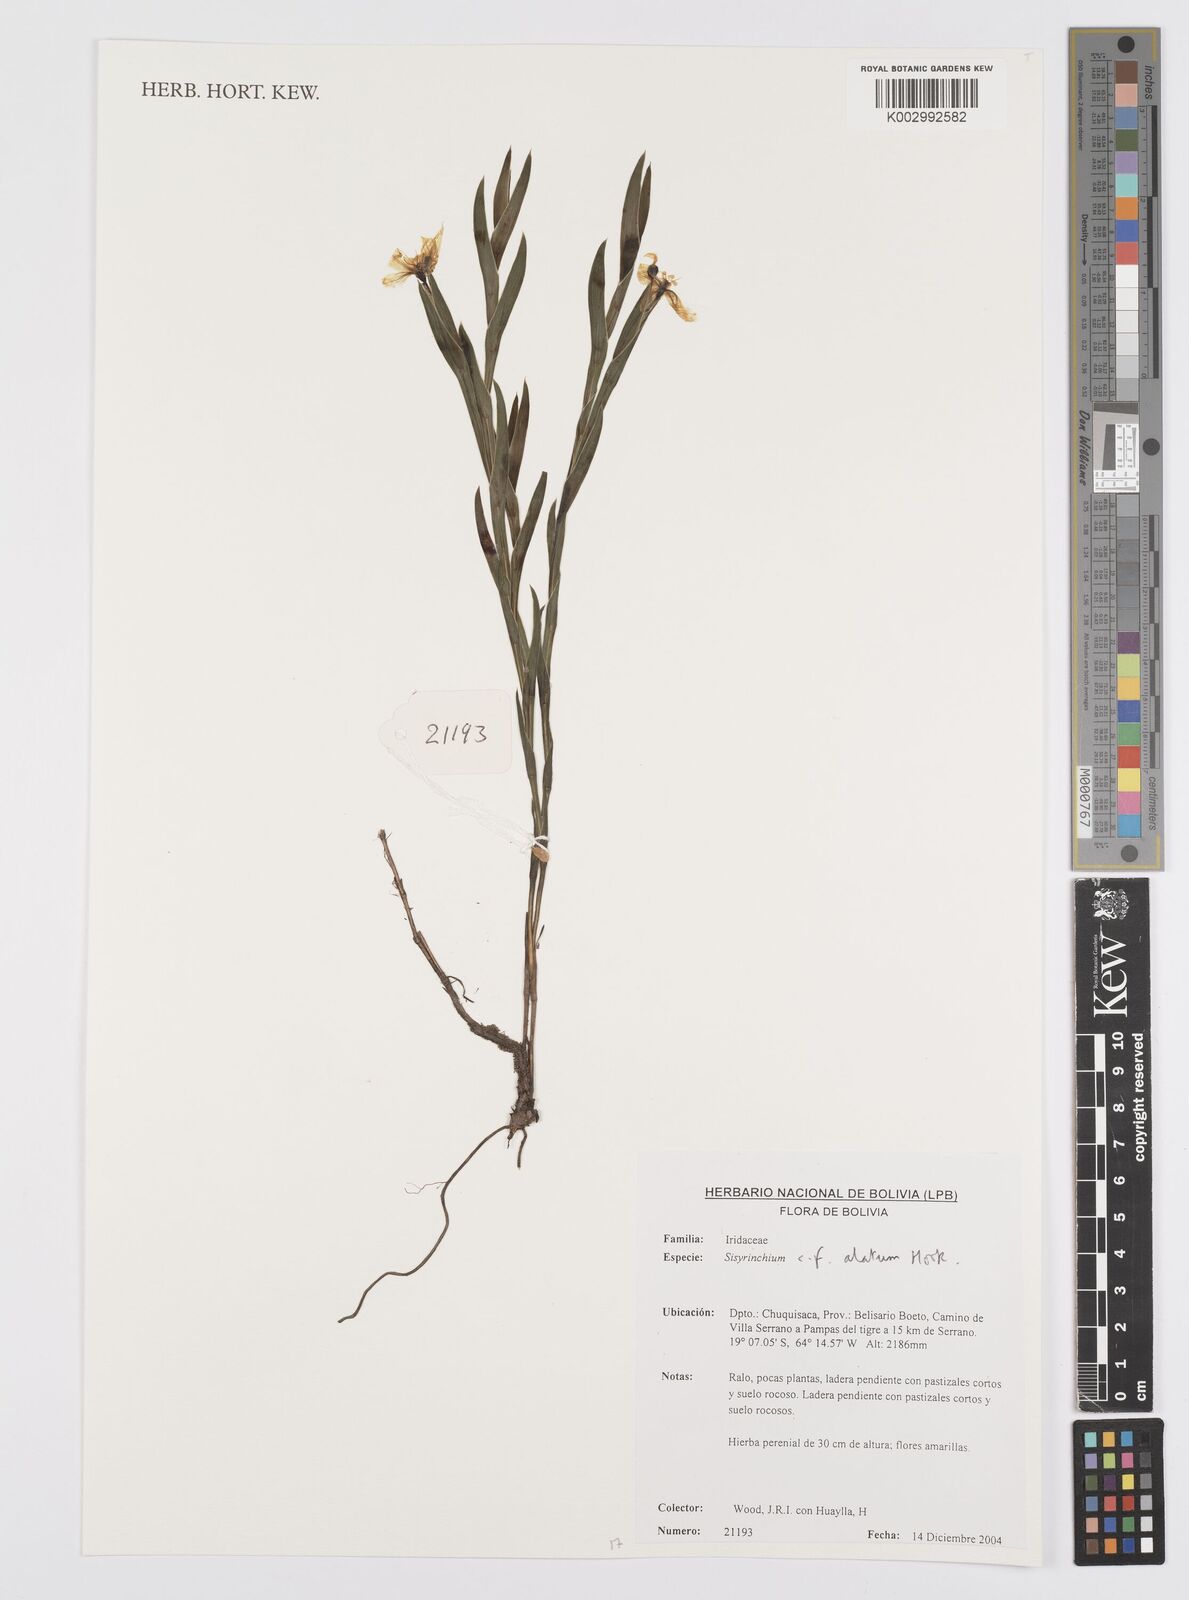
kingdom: Plantae
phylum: Tracheophyta
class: Liliopsida
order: Asparagales
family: Iridaceae
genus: Sisyrinchium
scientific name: Sisyrinchium vaginatum
